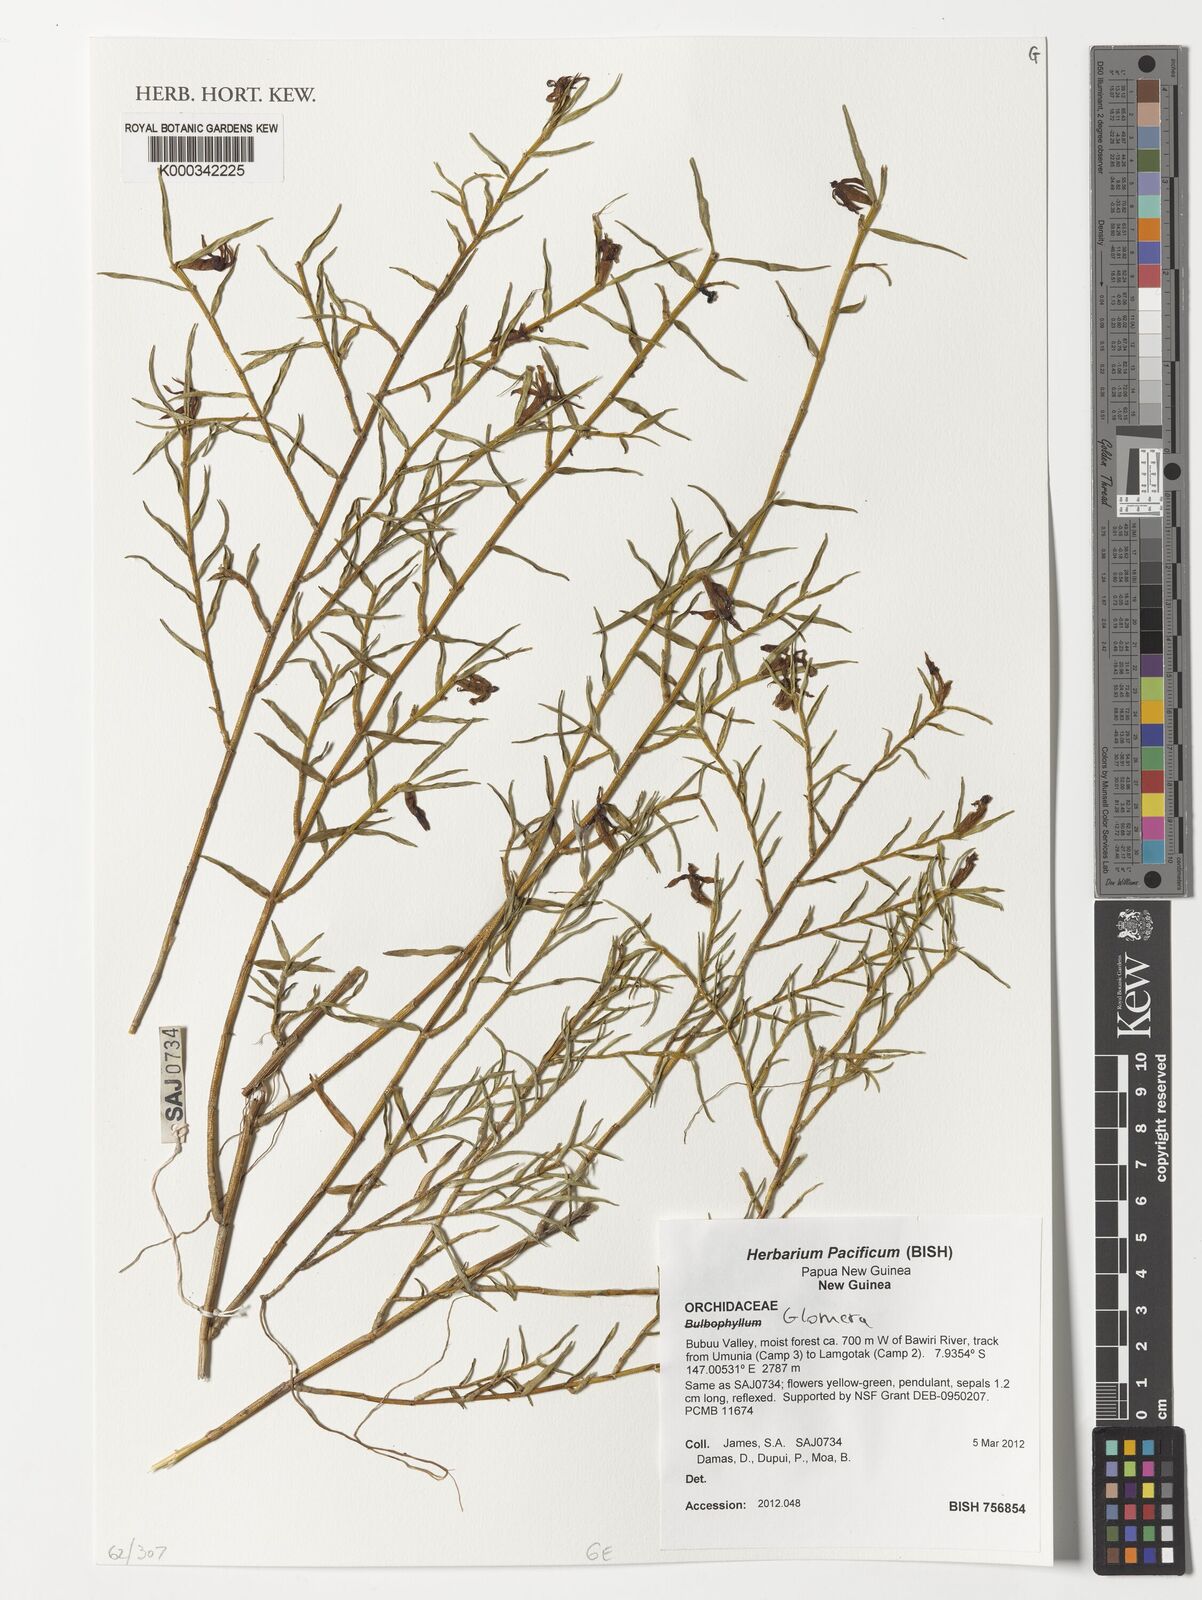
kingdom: Plantae
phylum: Tracheophyta
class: Liliopsida
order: Asparagales
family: Orchidaceae
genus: Glomera
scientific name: Glomera
